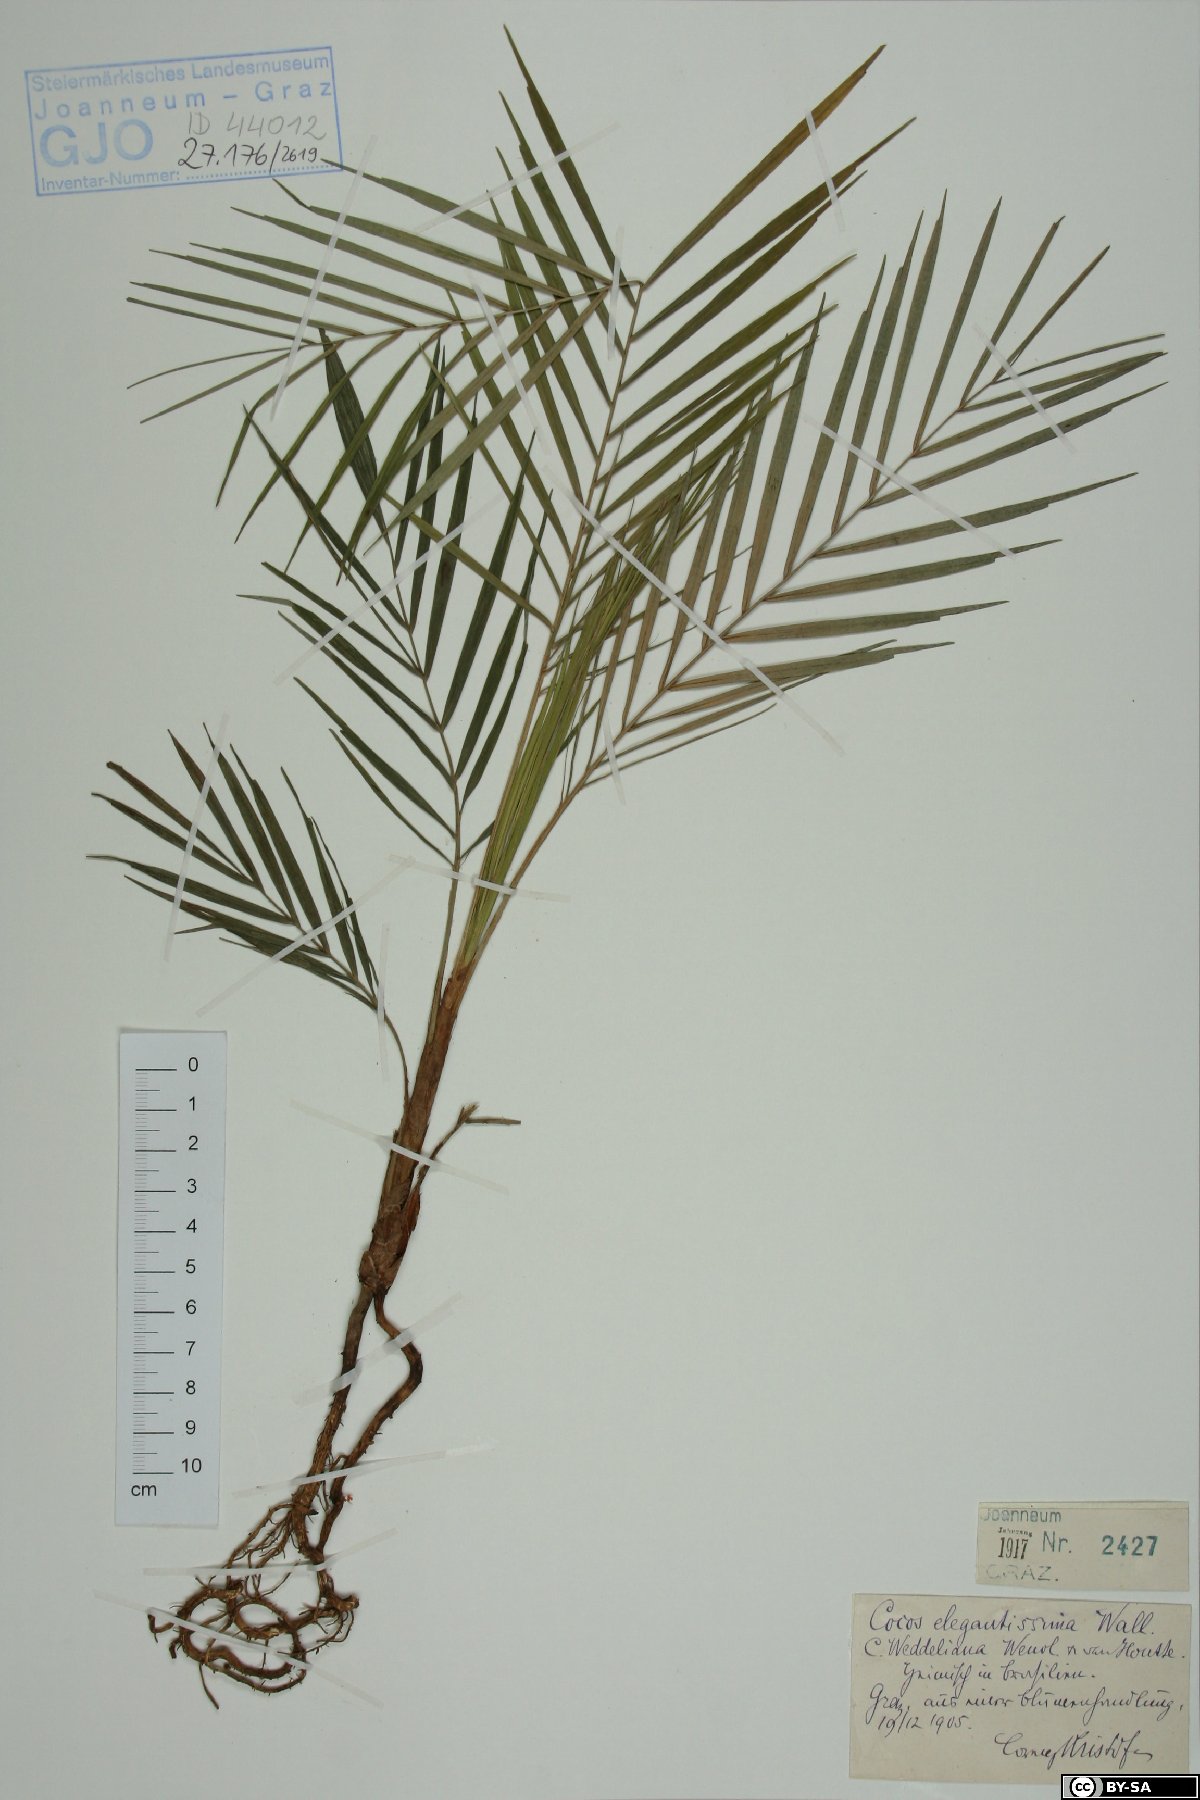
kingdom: Plantae
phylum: Tracheophyta
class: Liliopsida
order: Arecales
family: Arecaceae
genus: Cocos
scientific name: Cocos elegantissima
